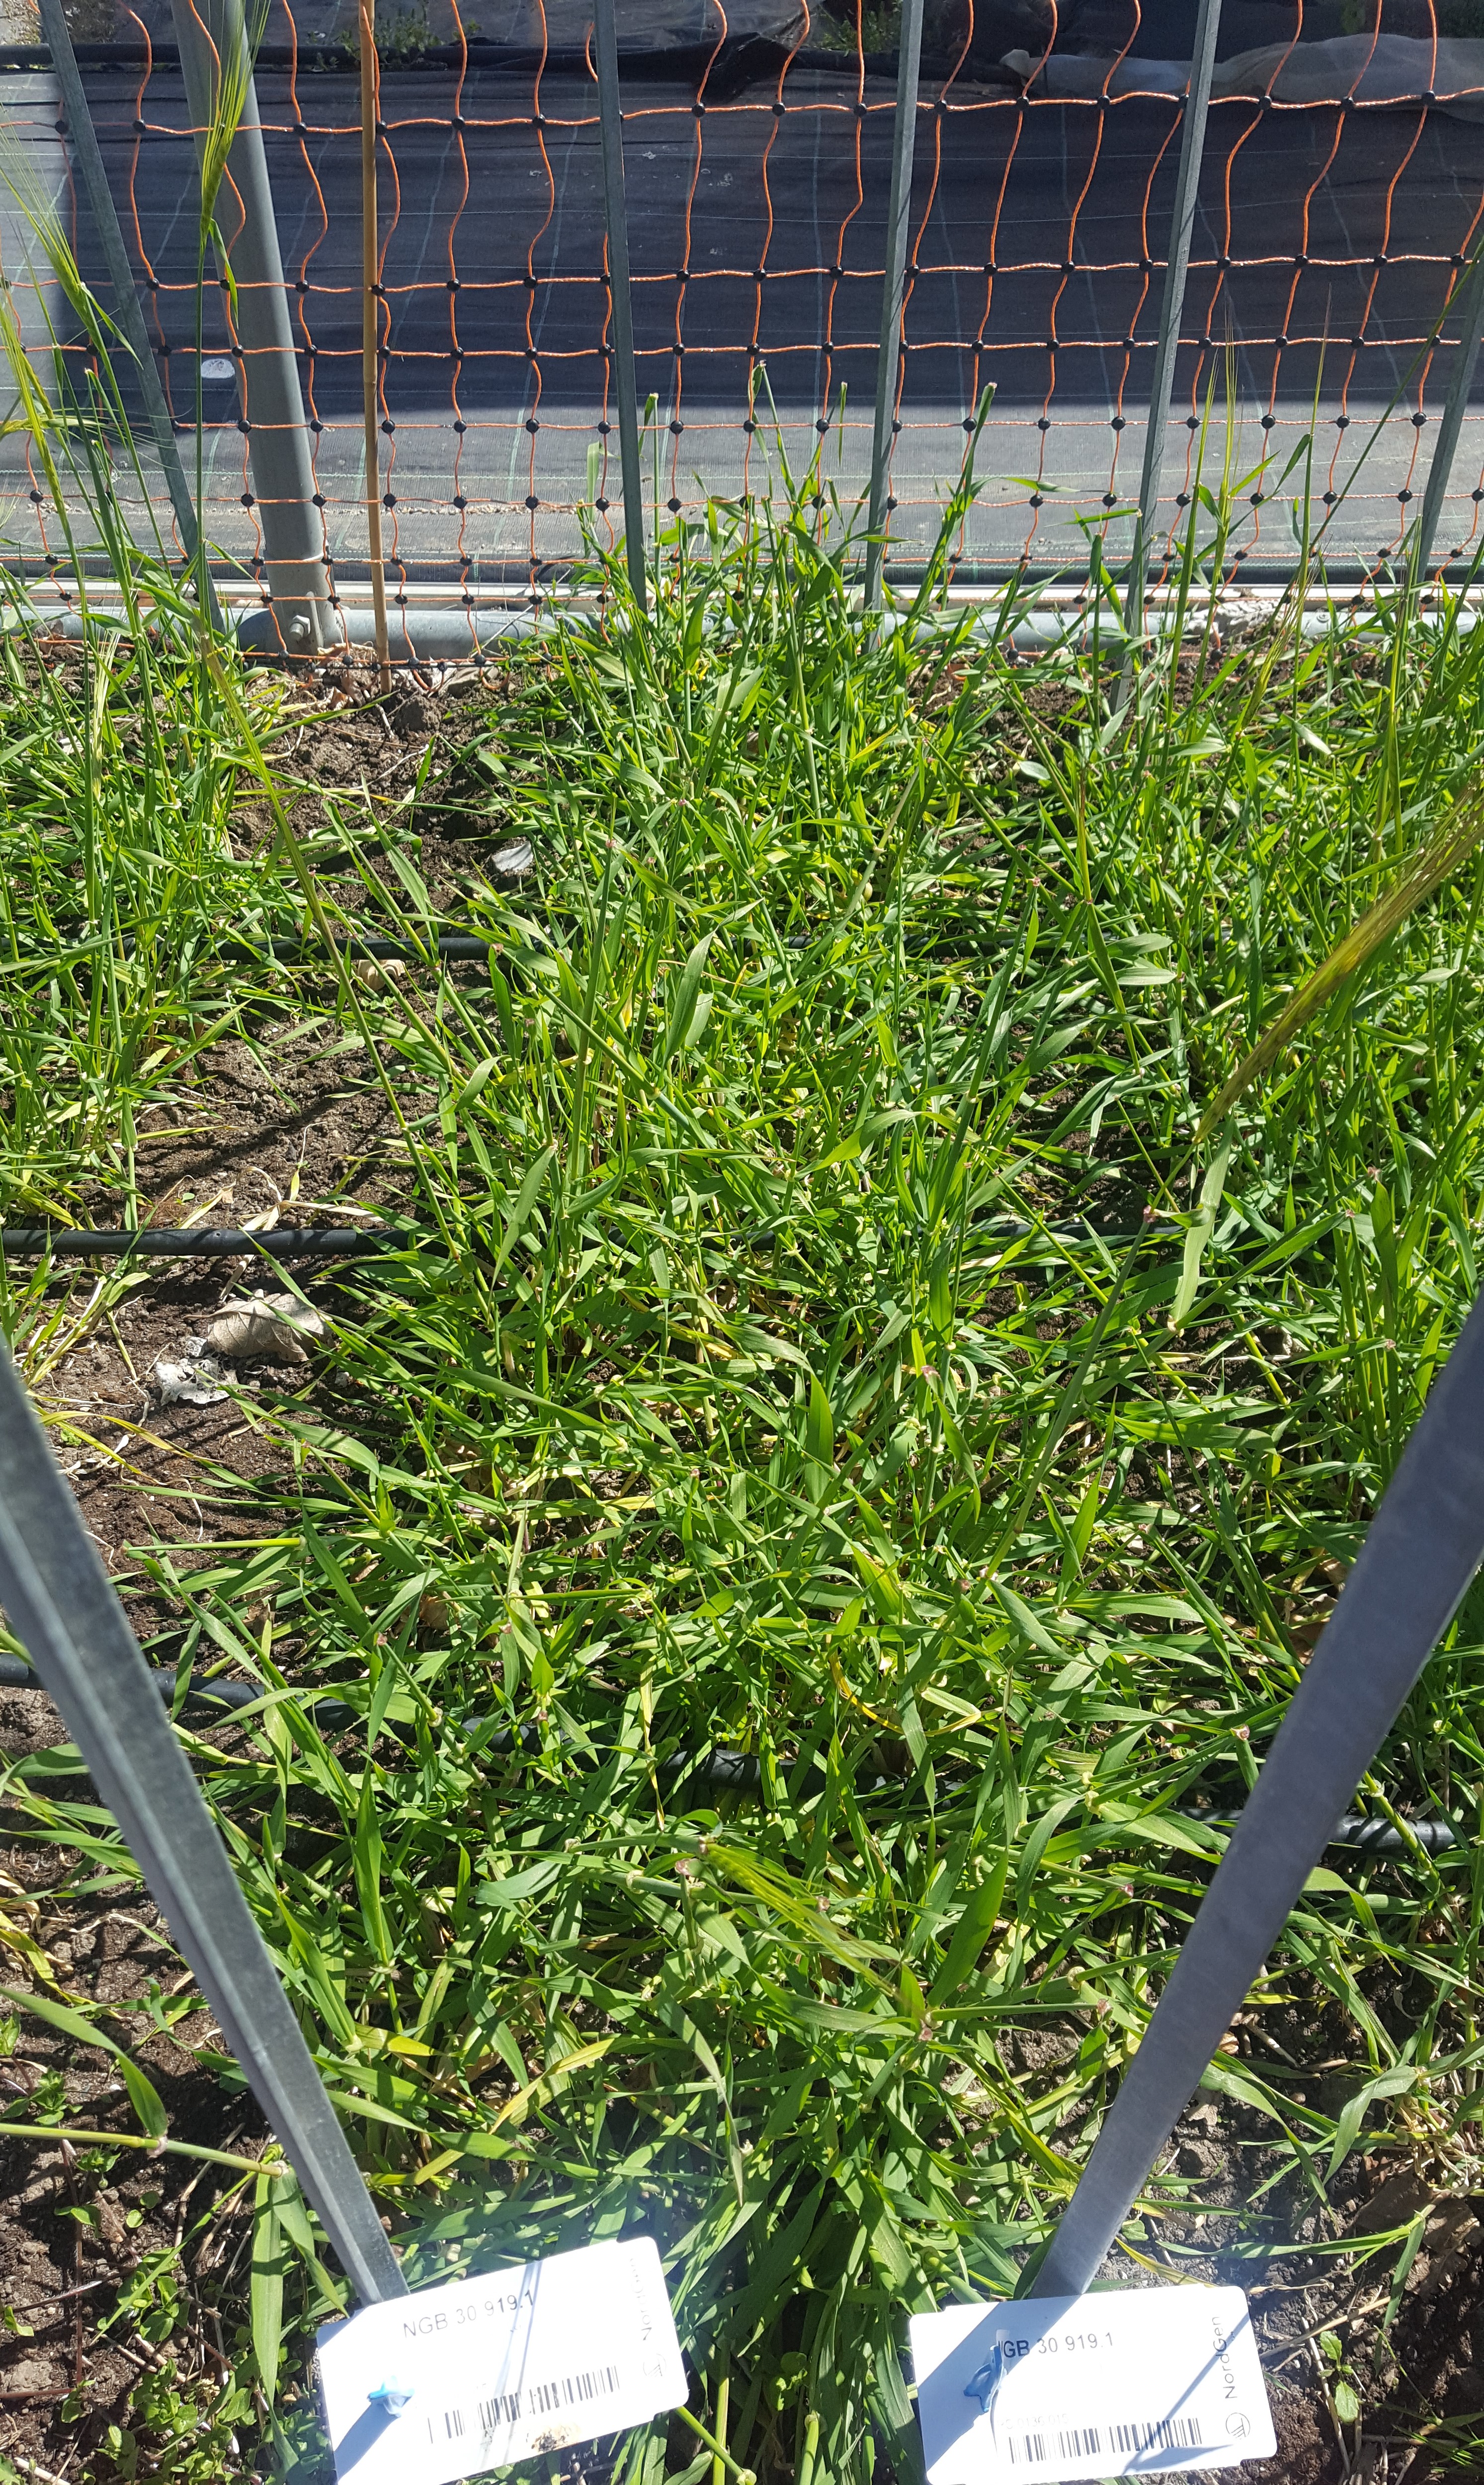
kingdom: Plantae
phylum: Tracheophyta
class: Liliopsida
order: Poales
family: Poaceae
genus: Hordeum
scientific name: Hordeum spontaneum
